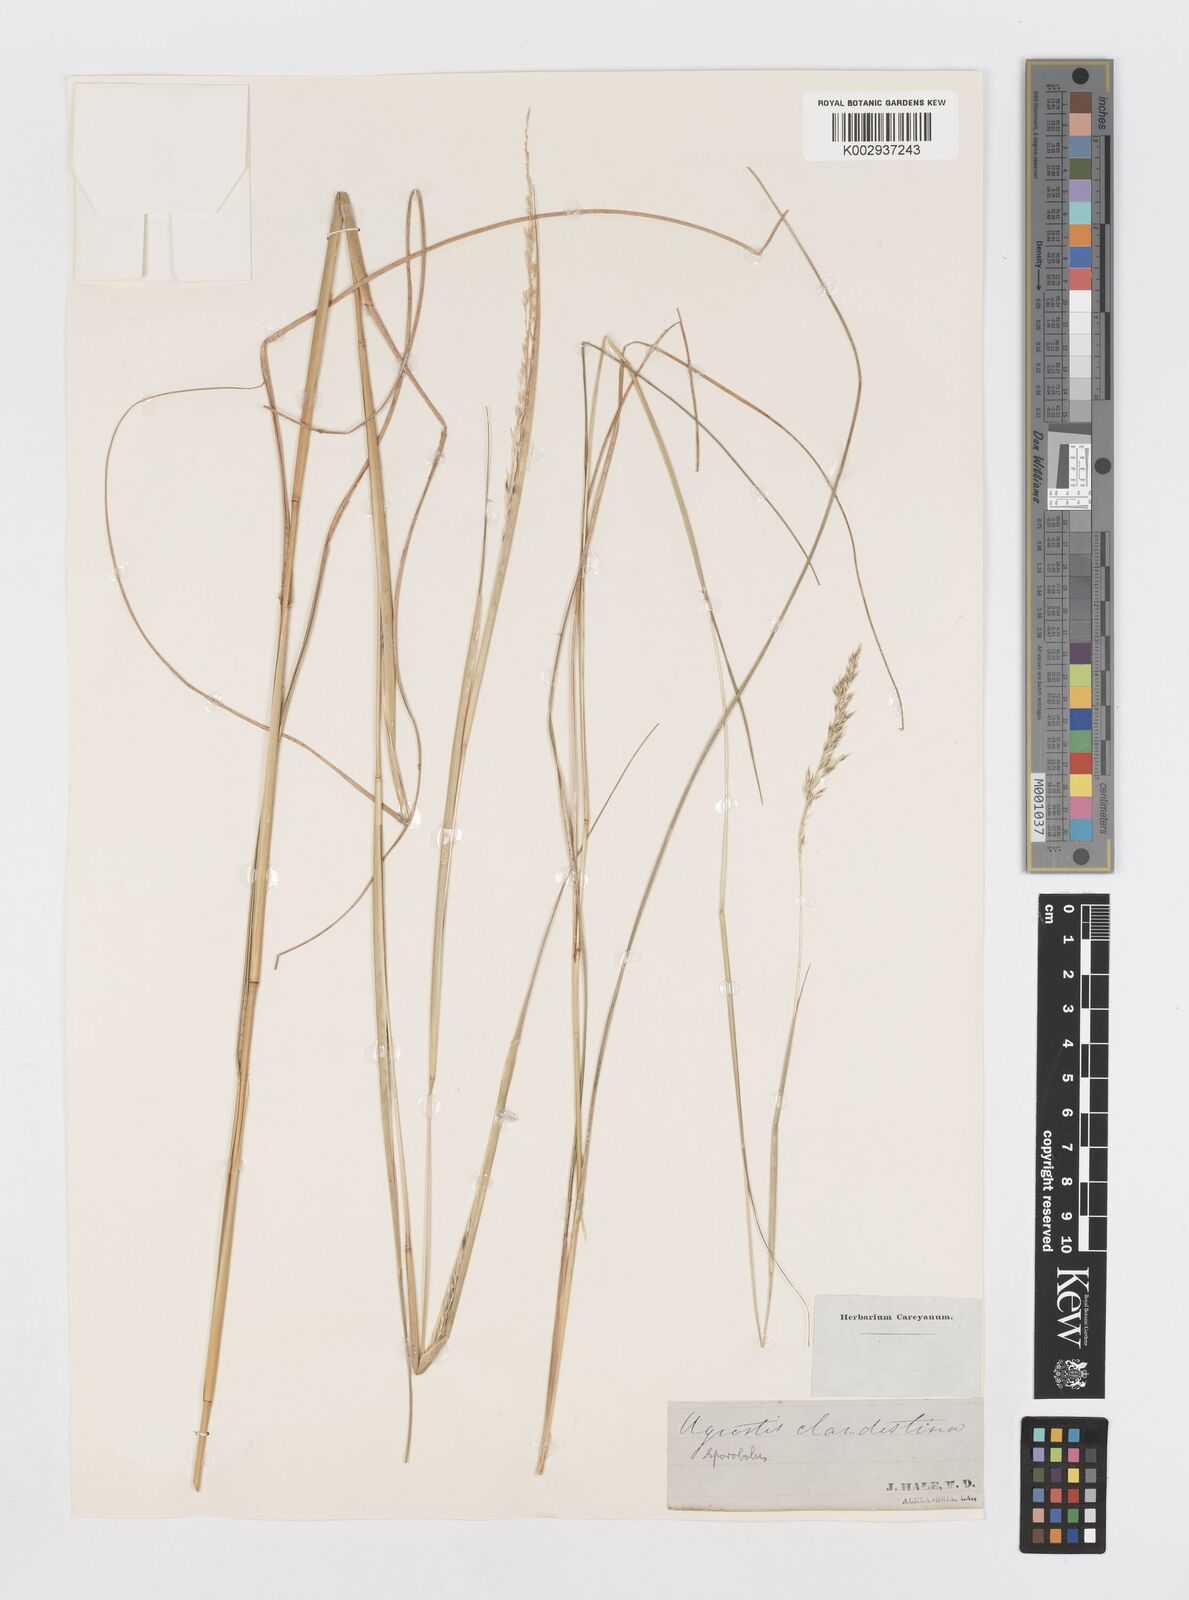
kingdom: Plantae
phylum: Tracheophyta
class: Liliopsida
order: Poales
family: Poaceae
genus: Sporobolus
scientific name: Sporobolus clandestinus
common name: Hidden dropseed
